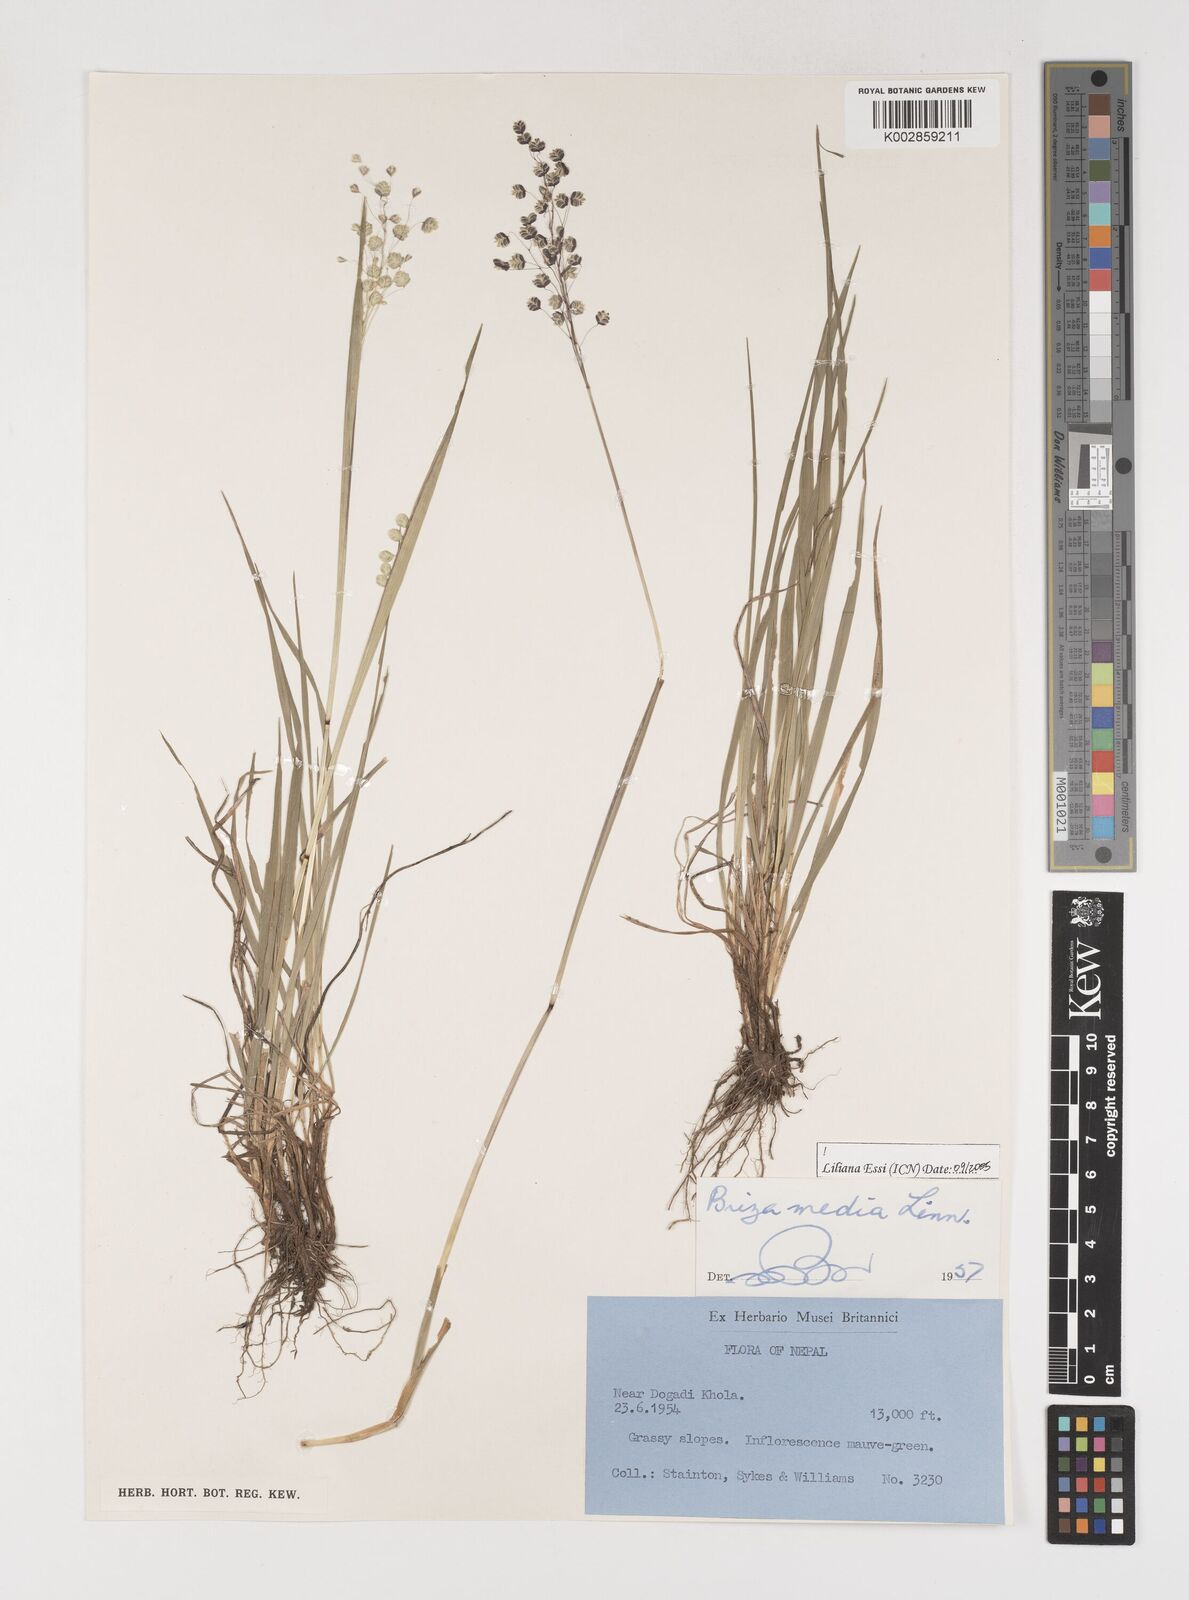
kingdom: Plantae
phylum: Tracheophyta
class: Liliopsida
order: Poales
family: Poaceae
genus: Briza
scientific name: Briza media
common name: Quaking grass
